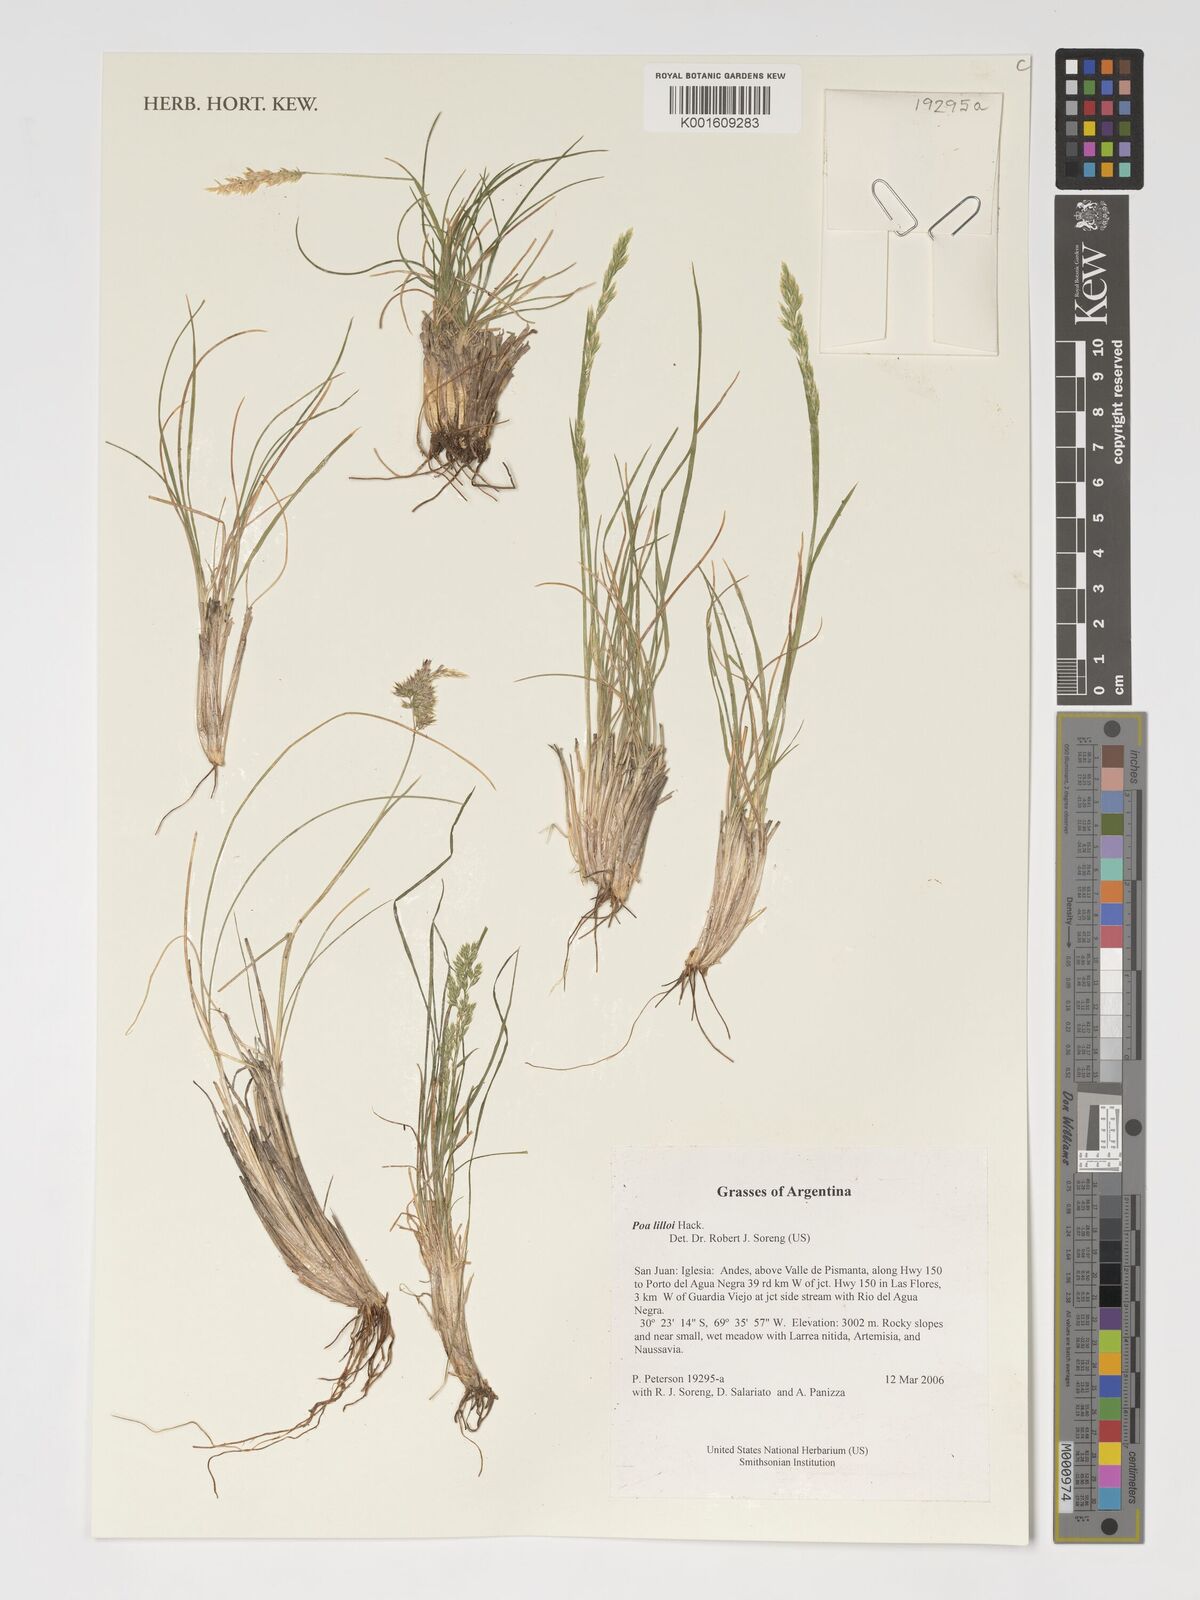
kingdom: Plantae
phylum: Tracheophyta
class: Liliopsida
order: Poales
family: Poaceae
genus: Poa
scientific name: Poa lilloi
